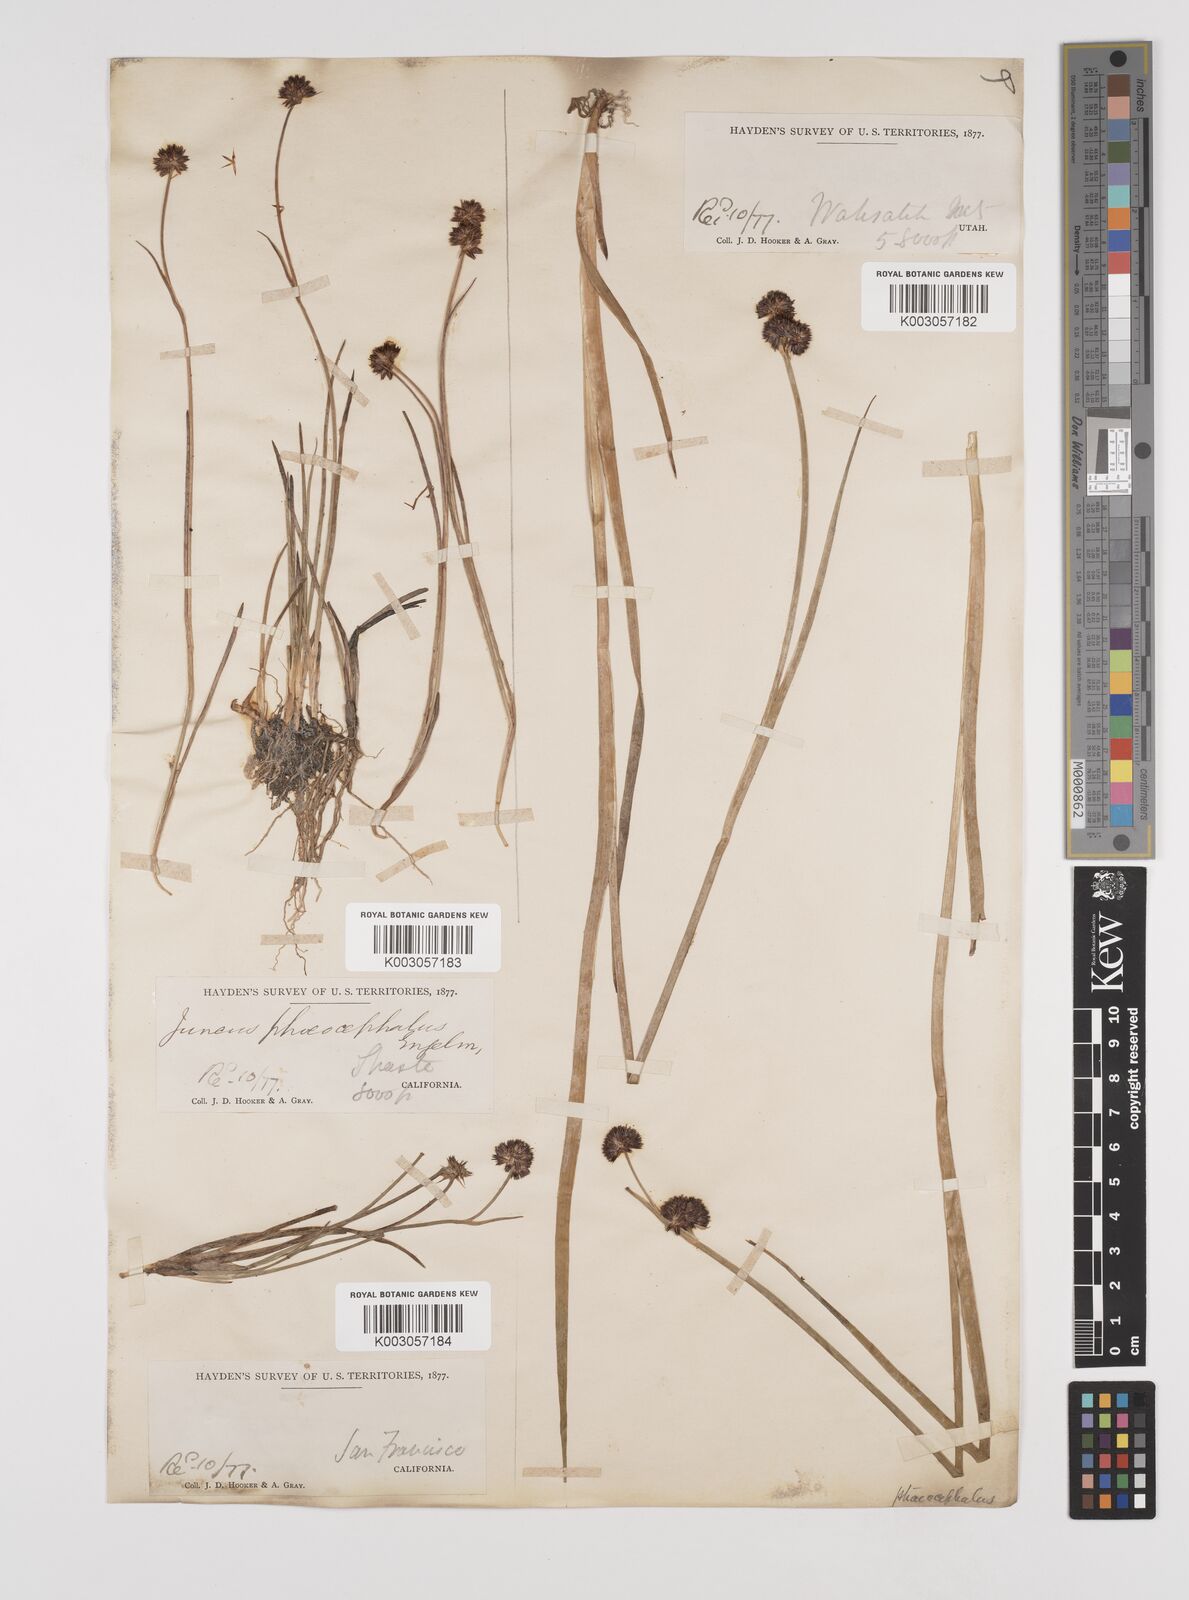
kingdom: Plantae
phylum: Tracheophyta
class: Liliopsida
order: Poales
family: Juncaceae
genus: Juncus
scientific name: Juncus phaeocephalus
